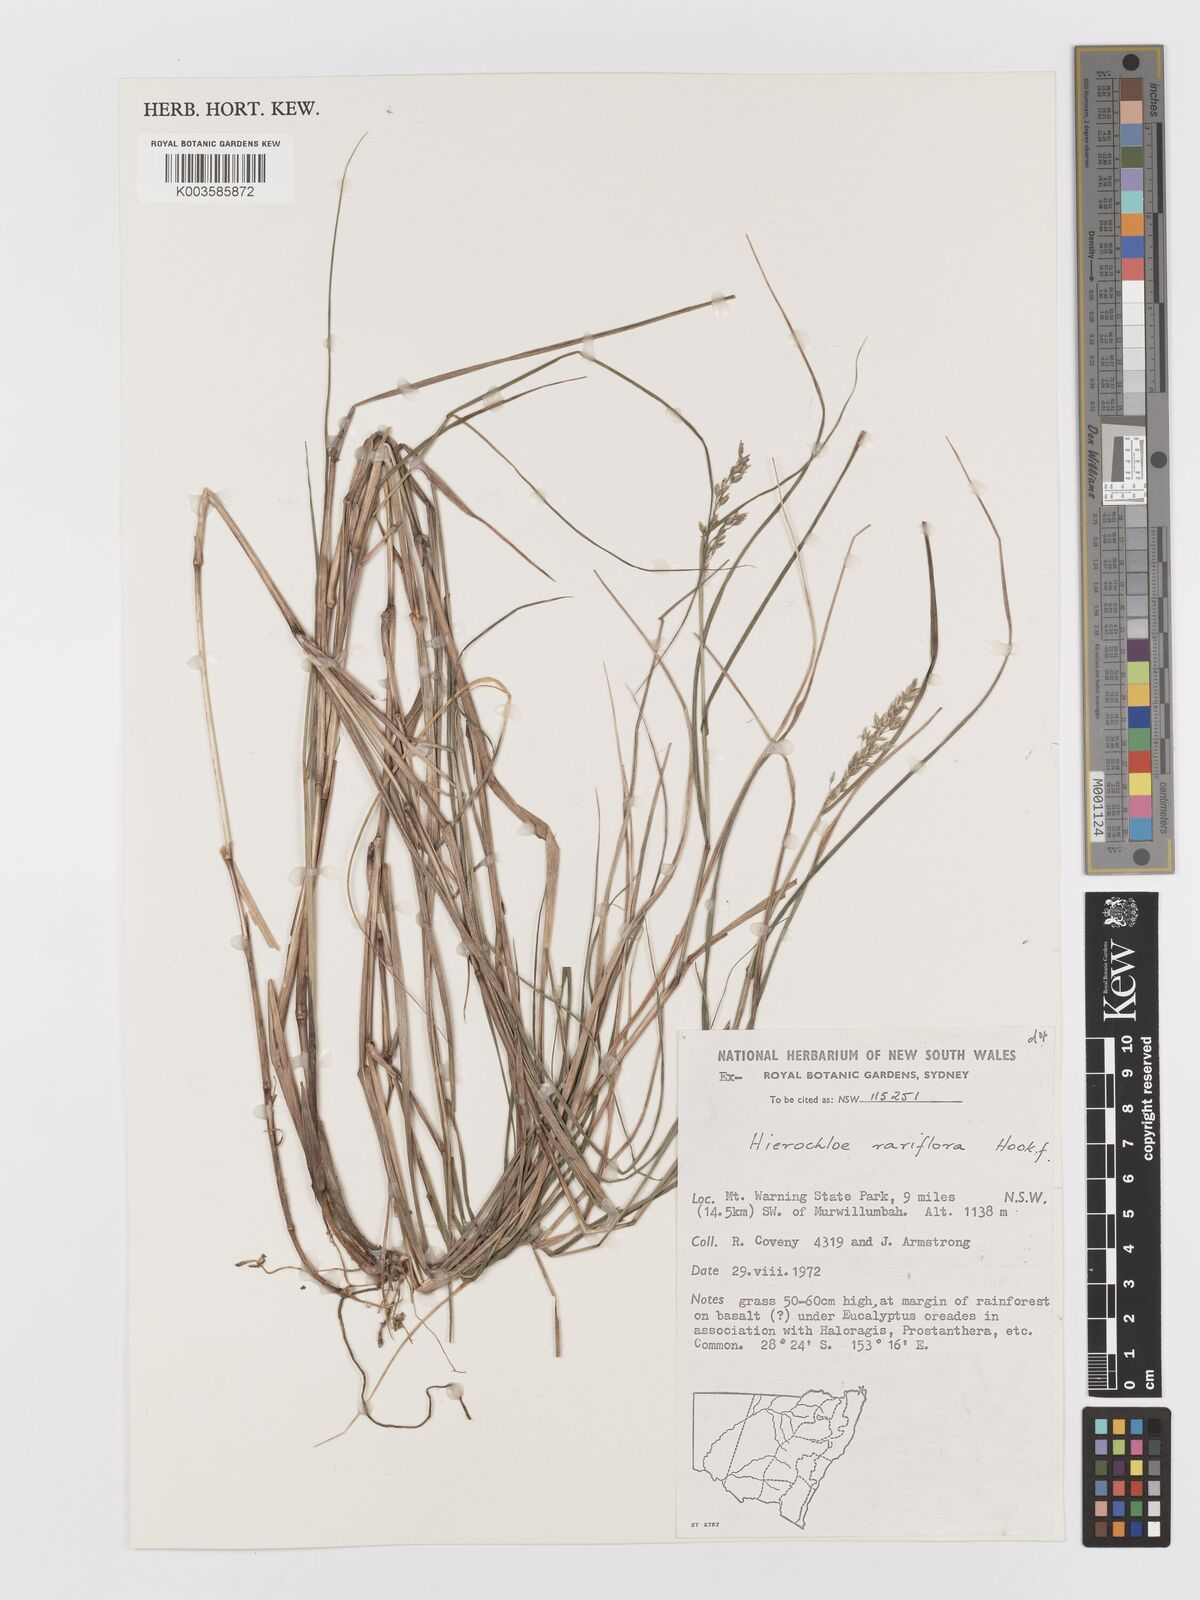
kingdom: Plantae
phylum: Tracheophyta
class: Liliopsida
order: Poales
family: Poaceae
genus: Anthoxanthum
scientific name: Anthoxanthum rariflorum
